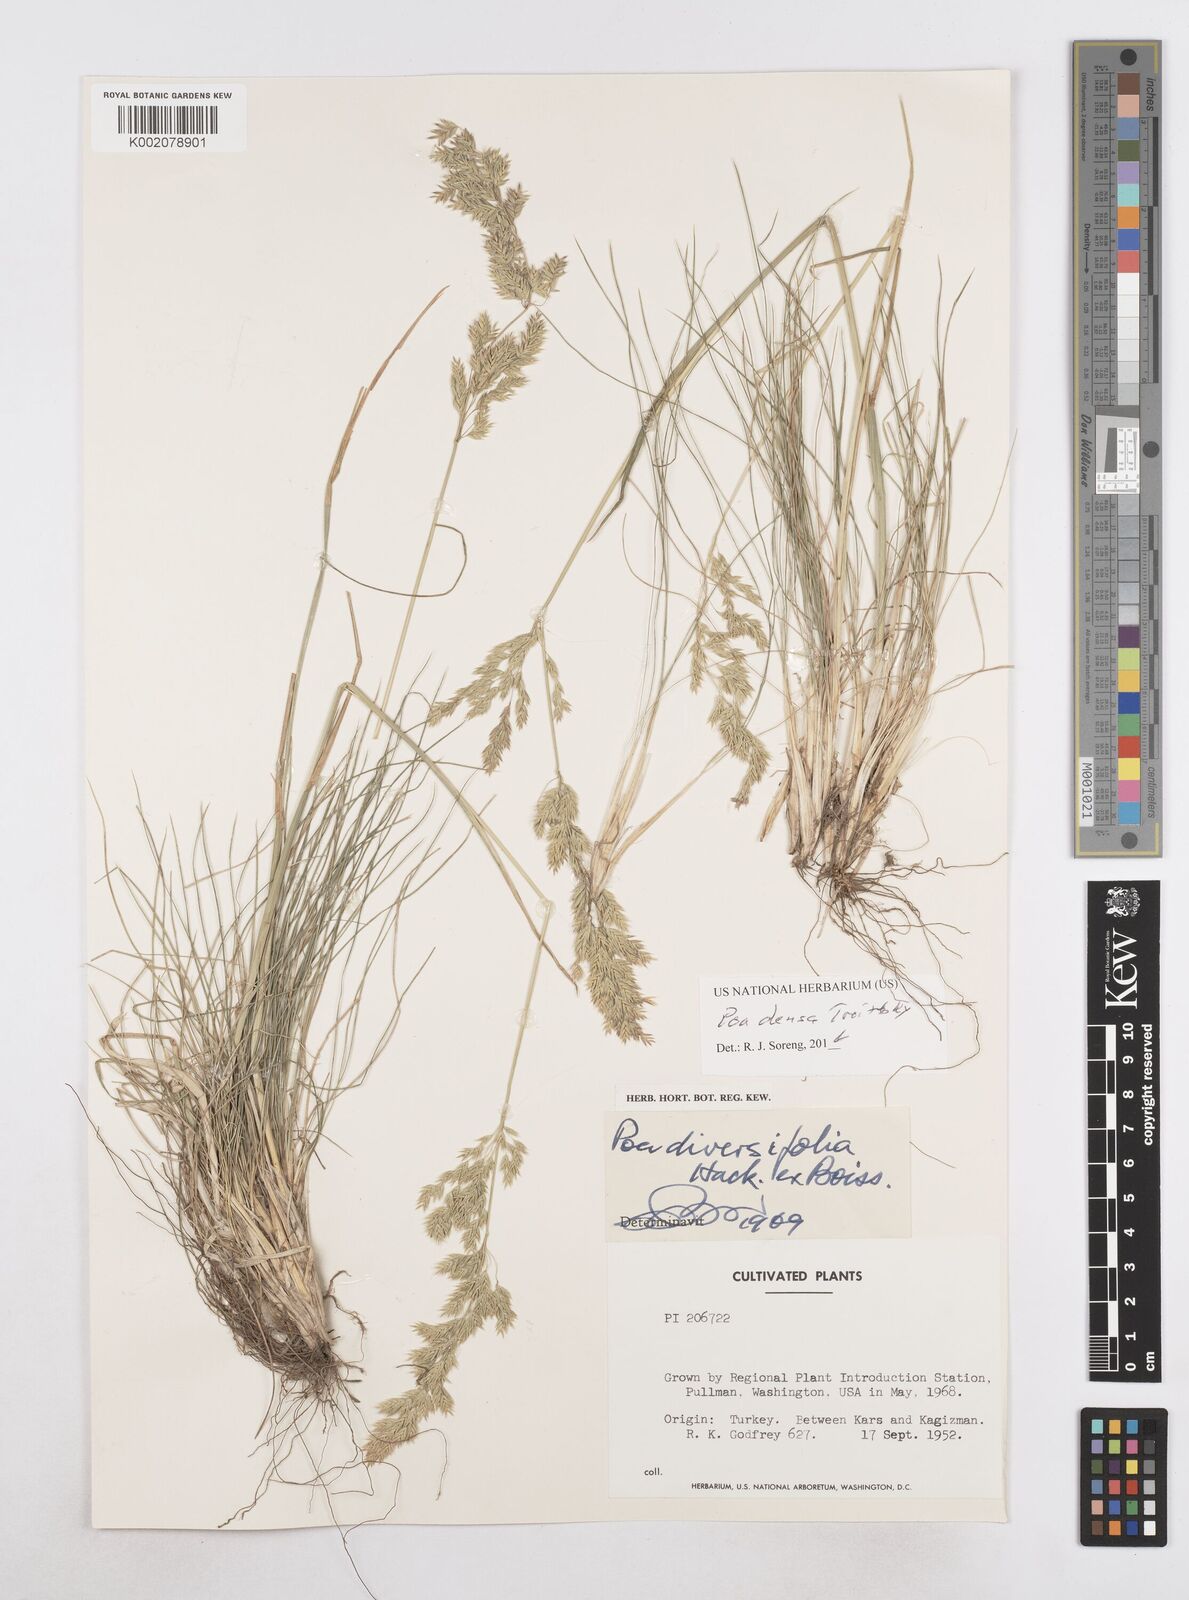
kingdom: Plantae
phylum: Tracheophyta
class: Liliopsida
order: Poales
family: Poaceae
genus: Poa
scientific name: Poa densa
